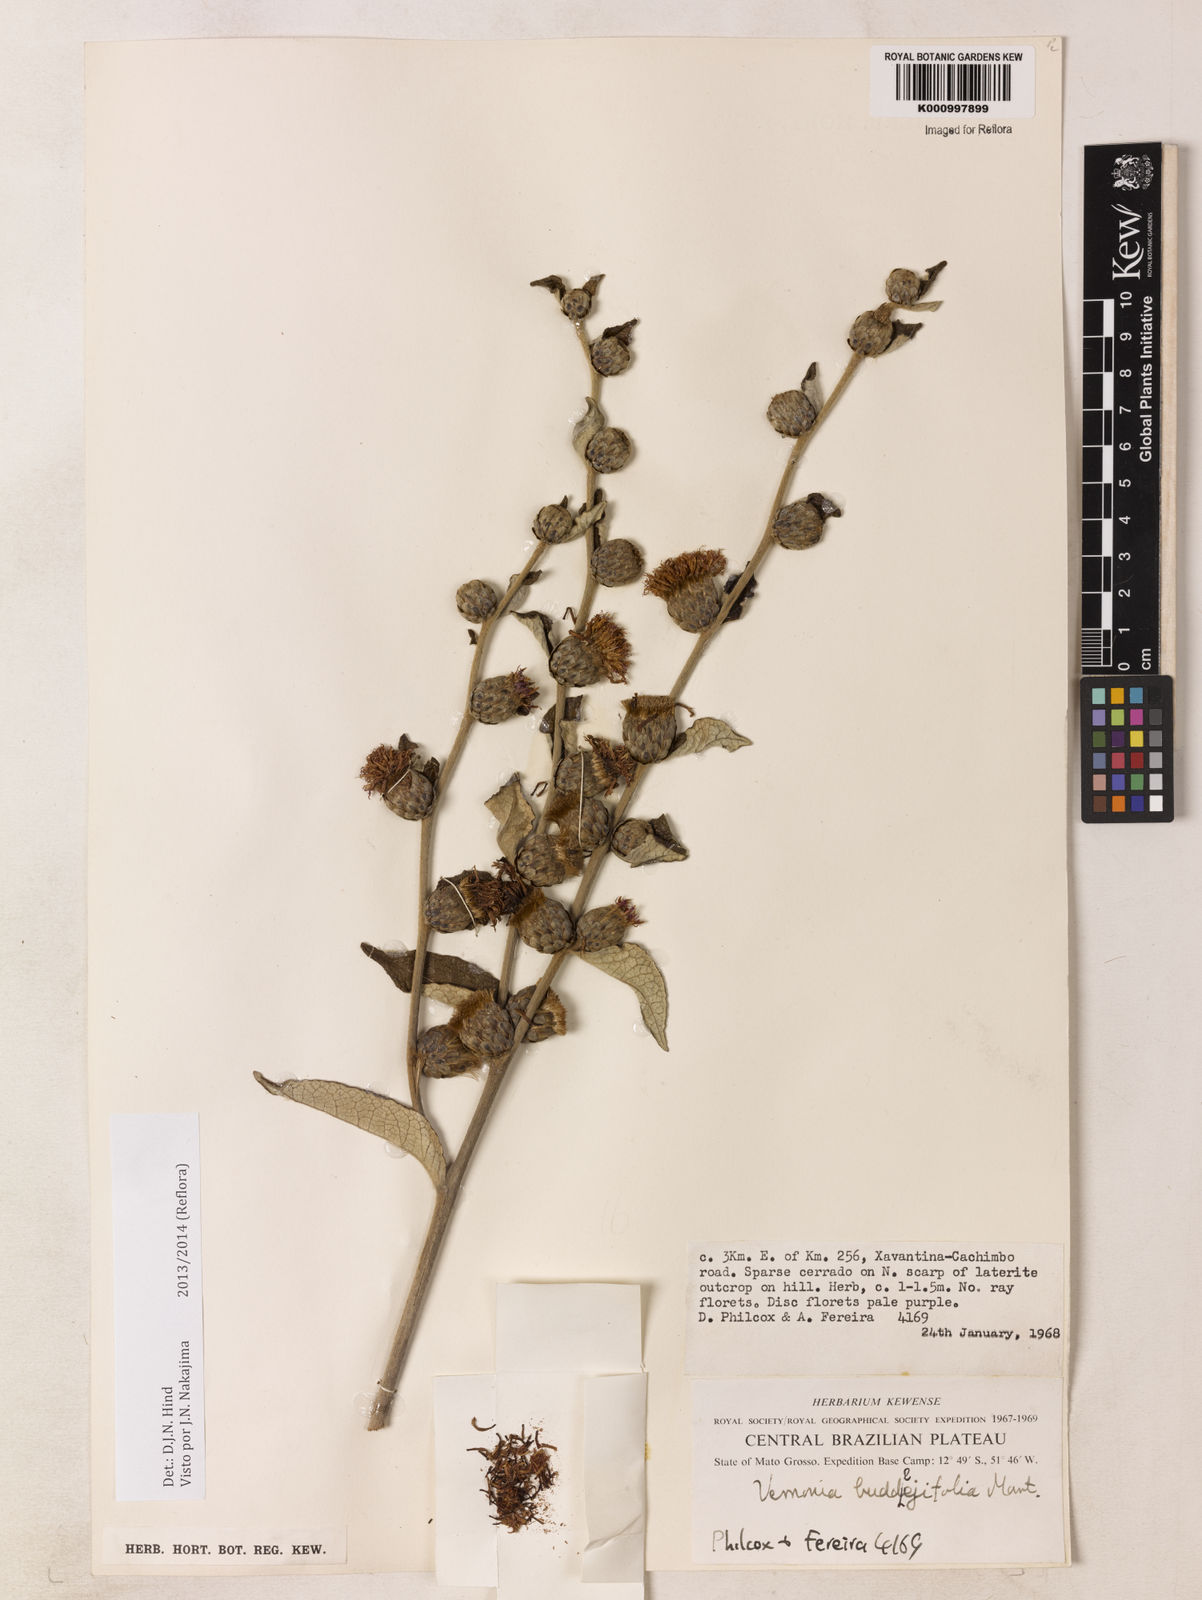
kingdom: Plantae
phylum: Tracheophyta
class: Magnoliopsida
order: Asterales
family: Asteraceae
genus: Lessingianthus
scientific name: Lessingianthus buddlejifolius
